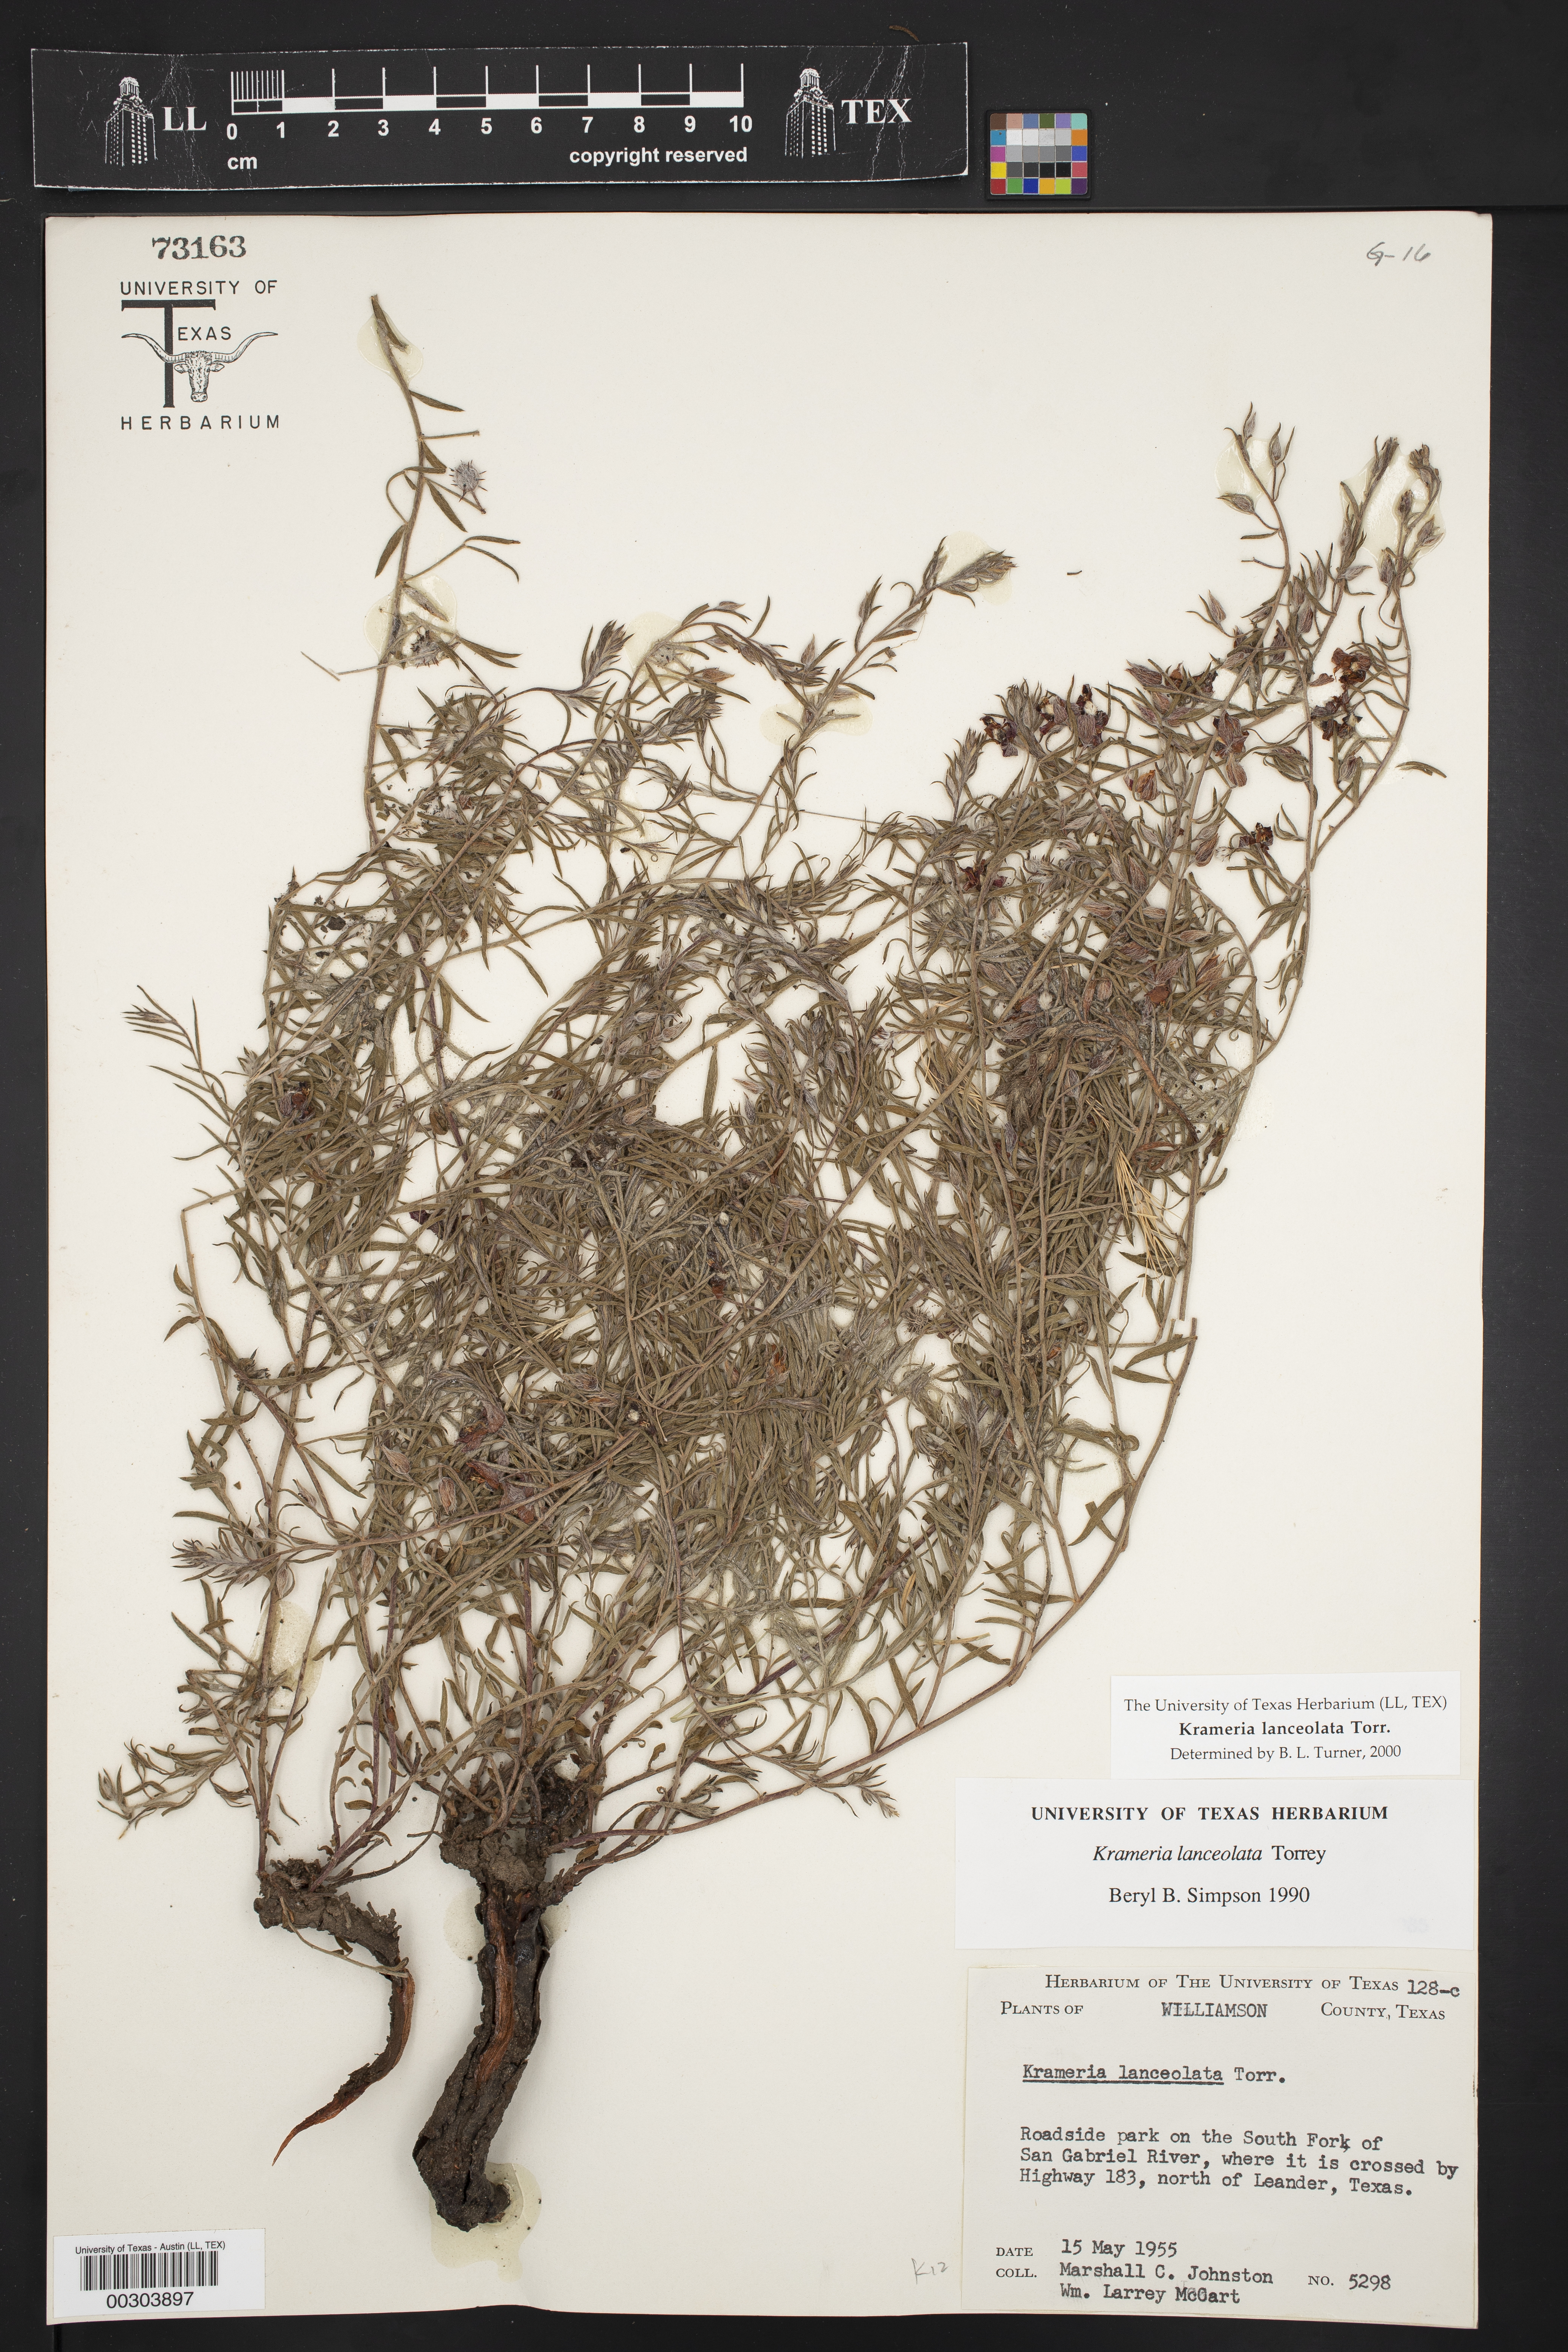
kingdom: Plantae
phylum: Tracheophyta
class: Magnoliopsida
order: Zygophyllales
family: Krameriaceae
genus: Krameria
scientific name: Krameria lanceolata
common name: Ratany
